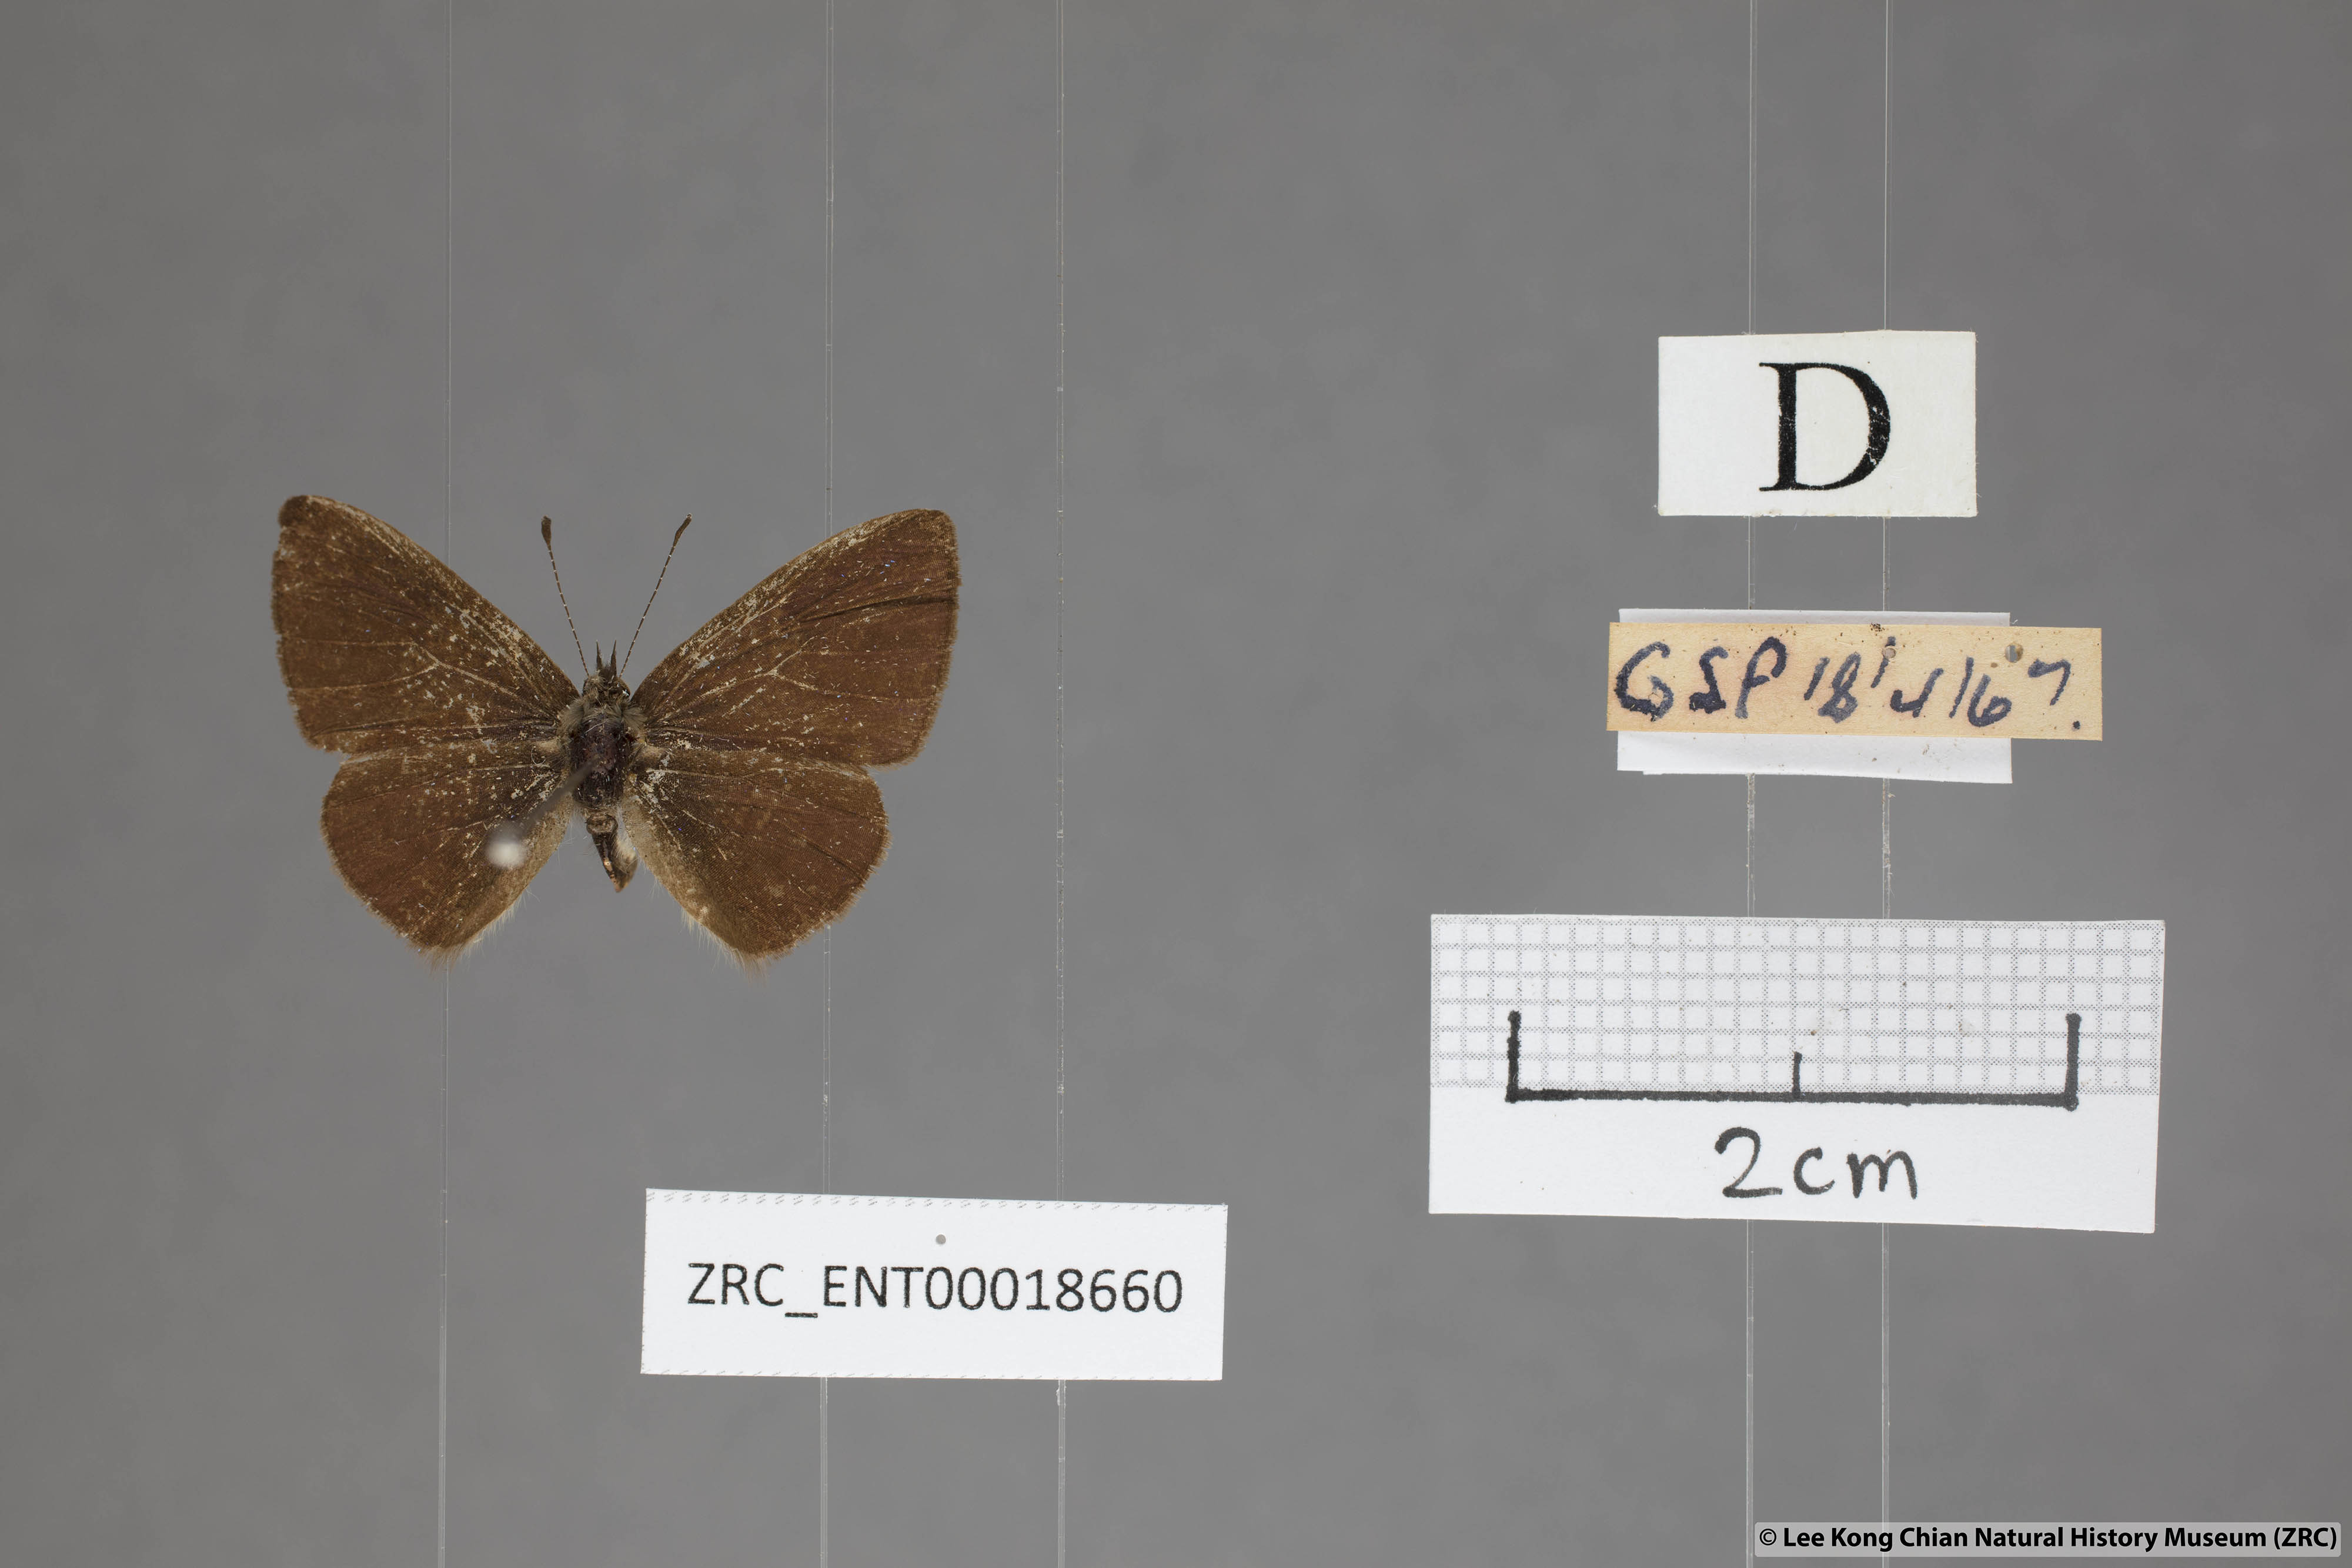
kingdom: Animalia
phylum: Arthropoda
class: Insecta
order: Lepidoptera
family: Lycaenidae
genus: Una
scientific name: Una usta
